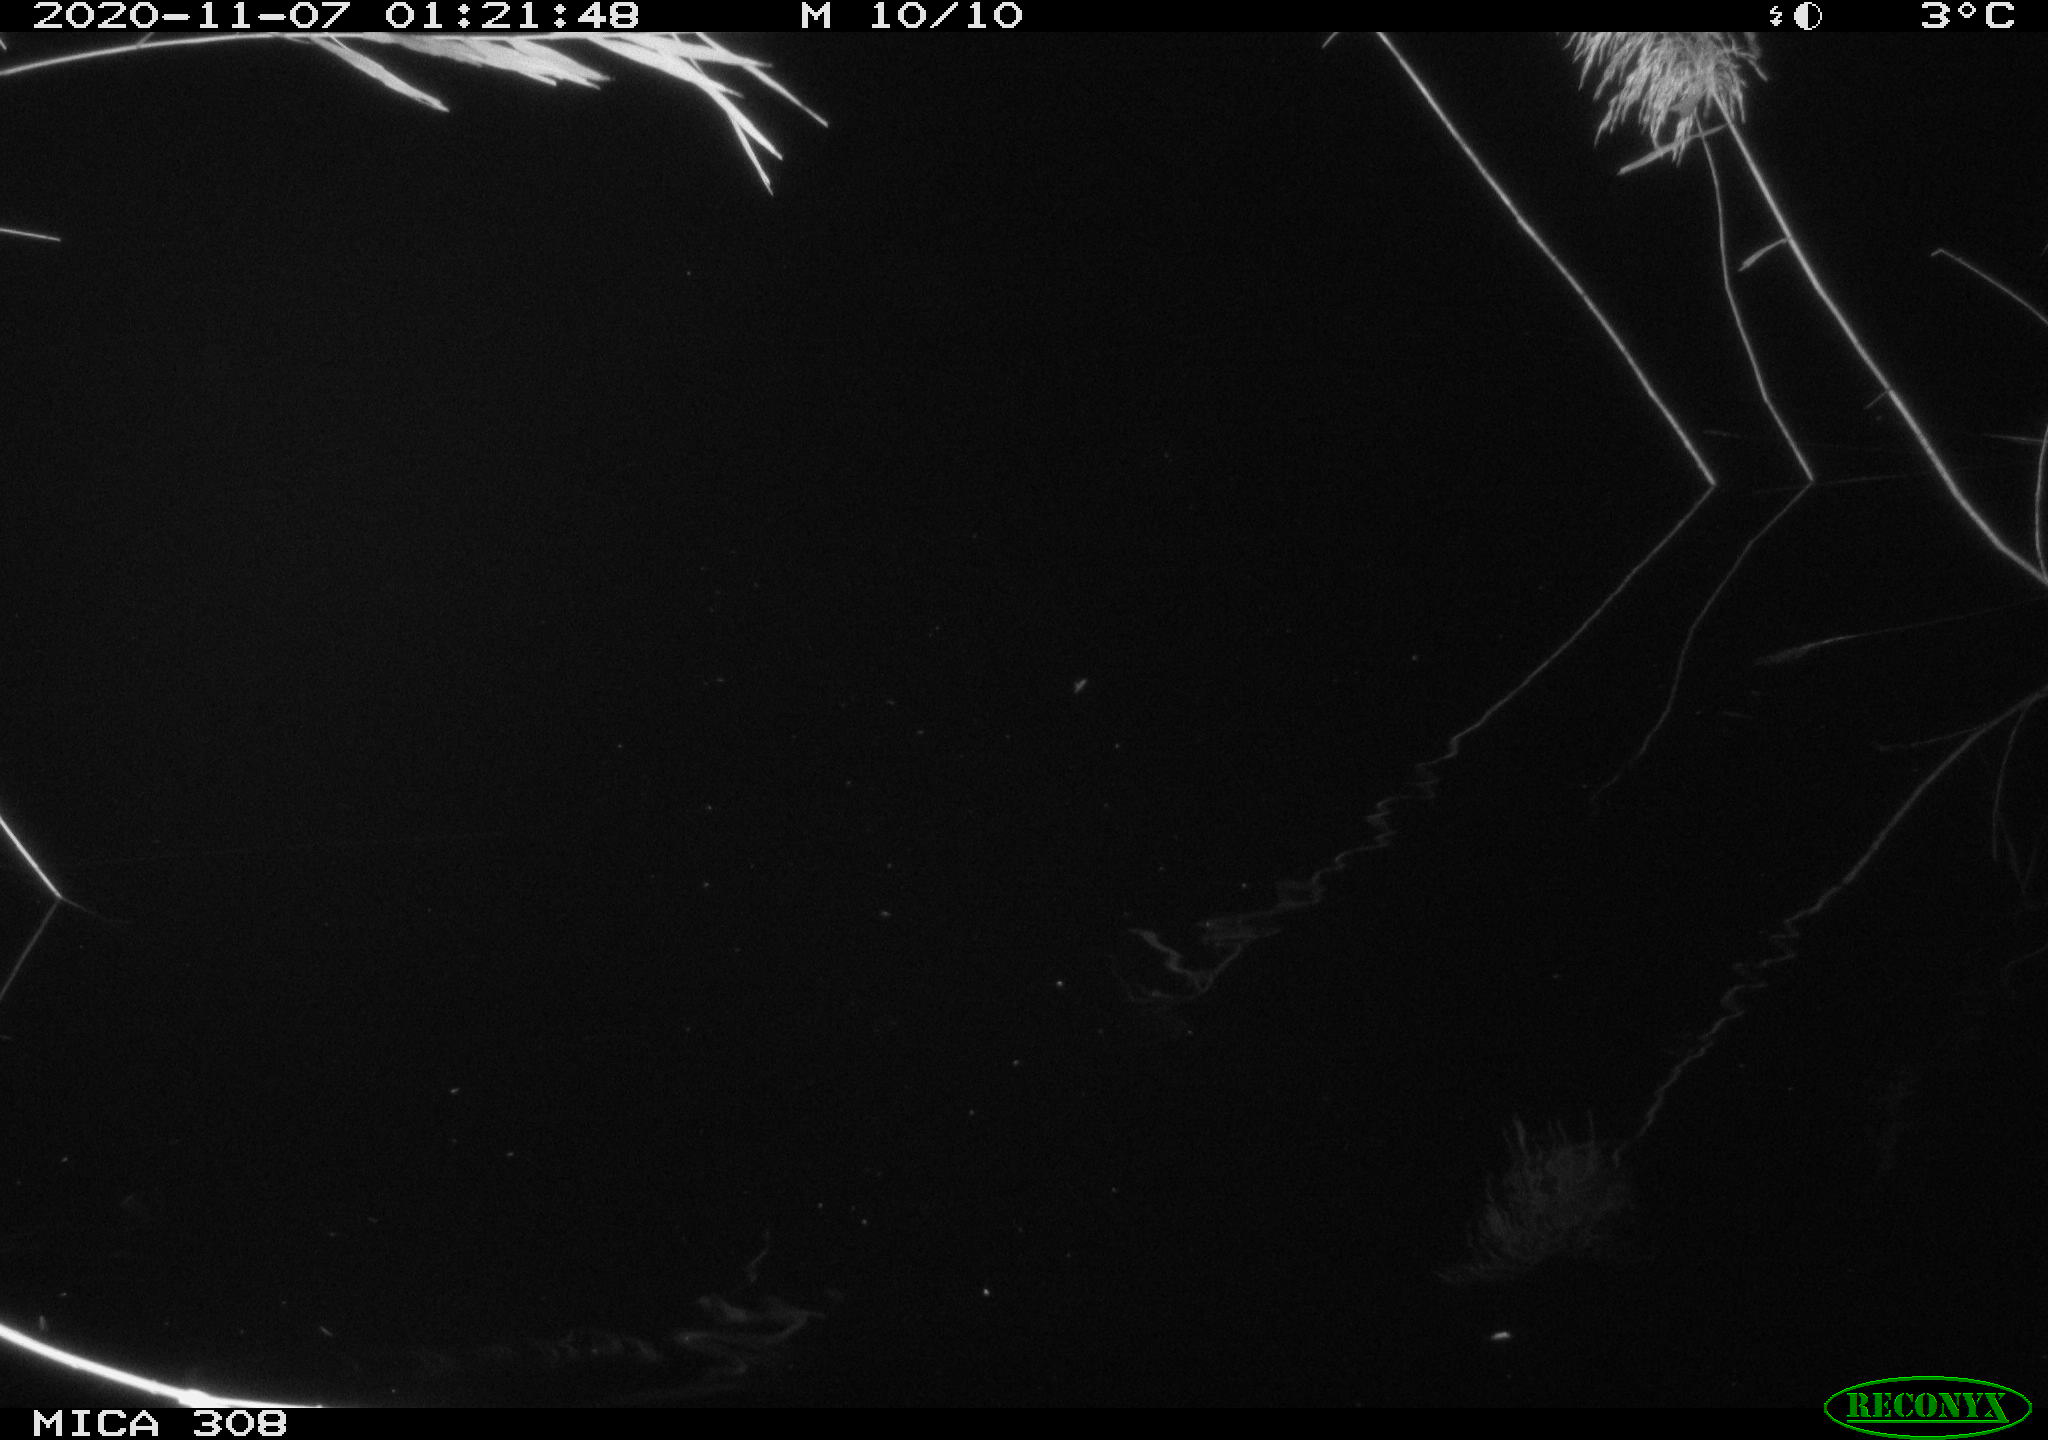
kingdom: Animalia
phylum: Chordata
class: Mammalia
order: Rodentia
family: Muridae
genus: Rattus
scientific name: Rattus norvegicus
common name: Brown rat
